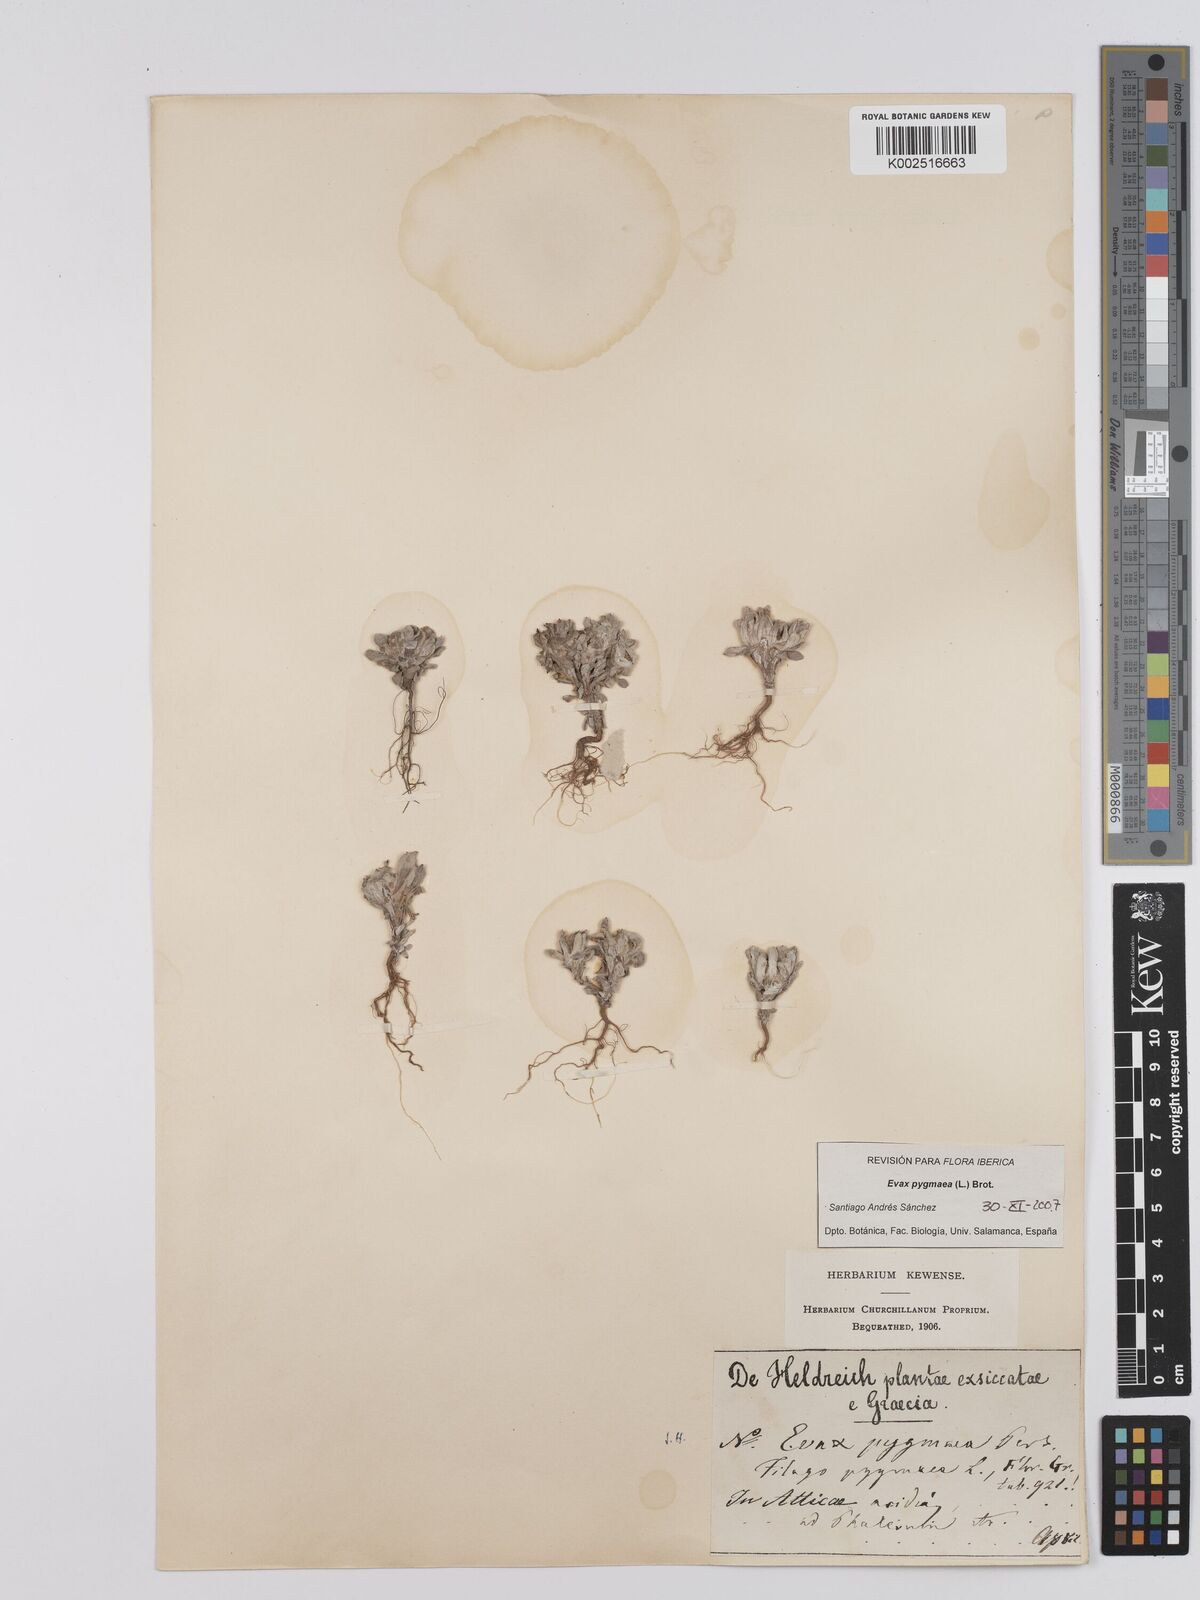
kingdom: Plantae
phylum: Tracheophyta
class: Magnoliopsida
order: Asterales
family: Asteraceae
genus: Filago
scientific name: Filago pygmaea
